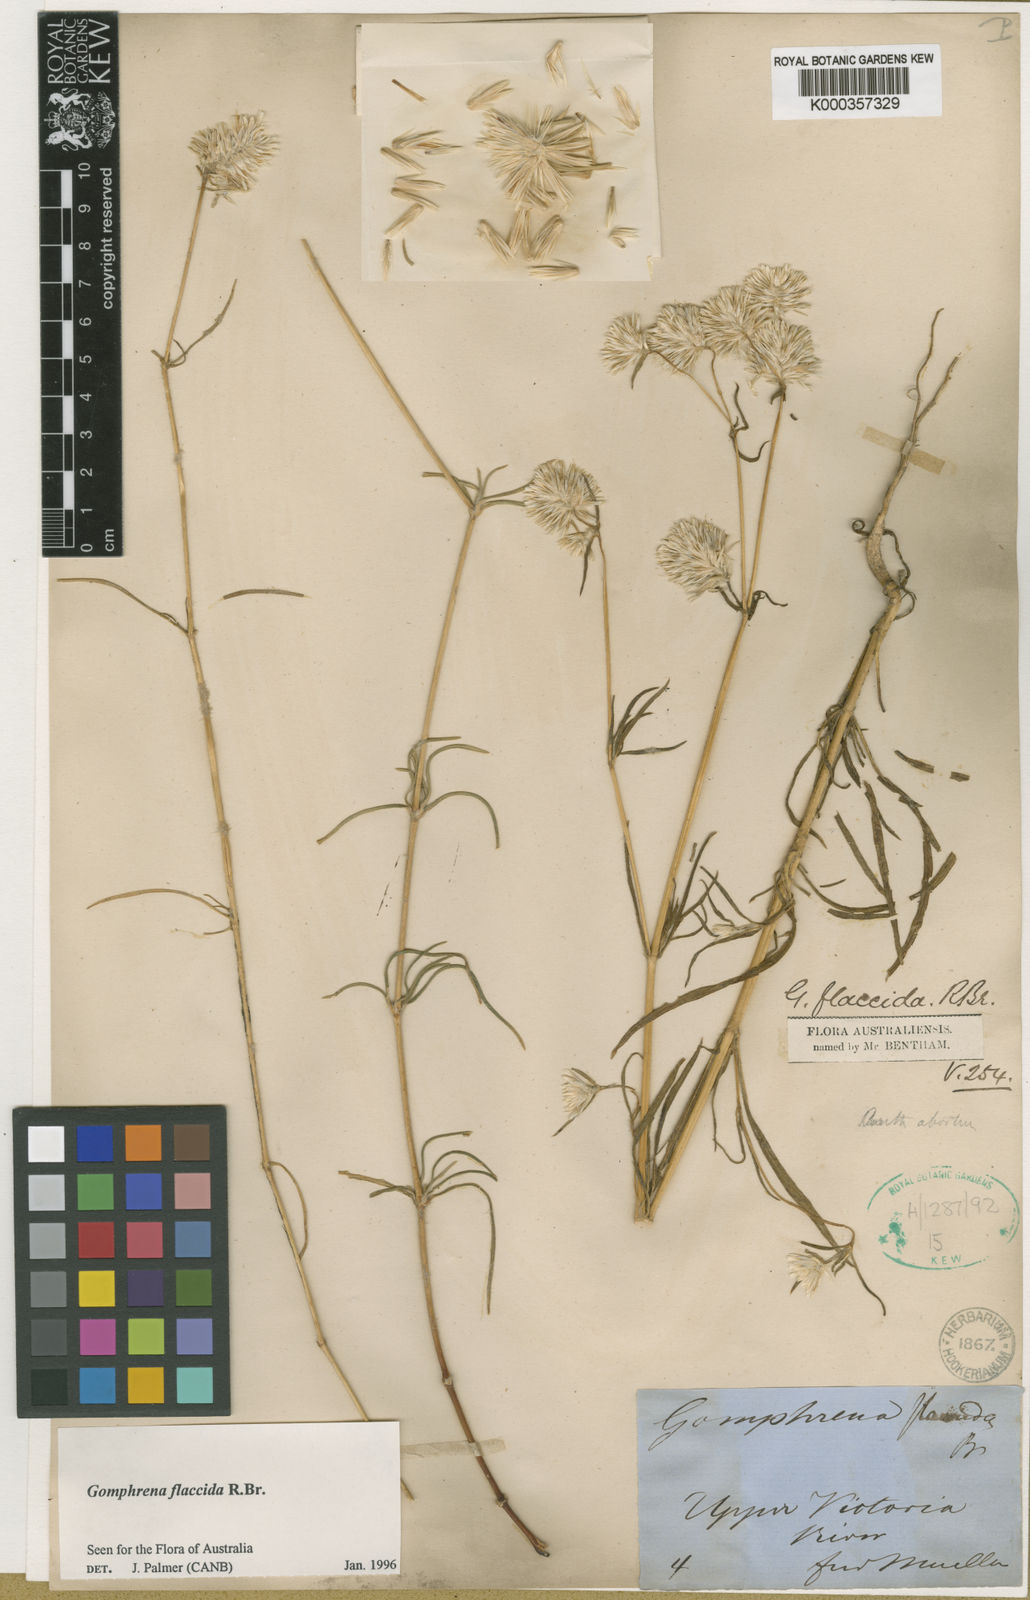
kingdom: Plantae
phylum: Tracheophyta
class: Magnoliopsida
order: Caryophyllales
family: Amaranthaceae
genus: Gomphrena
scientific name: Gomphrena flaccida
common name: Gomphrena-weed
